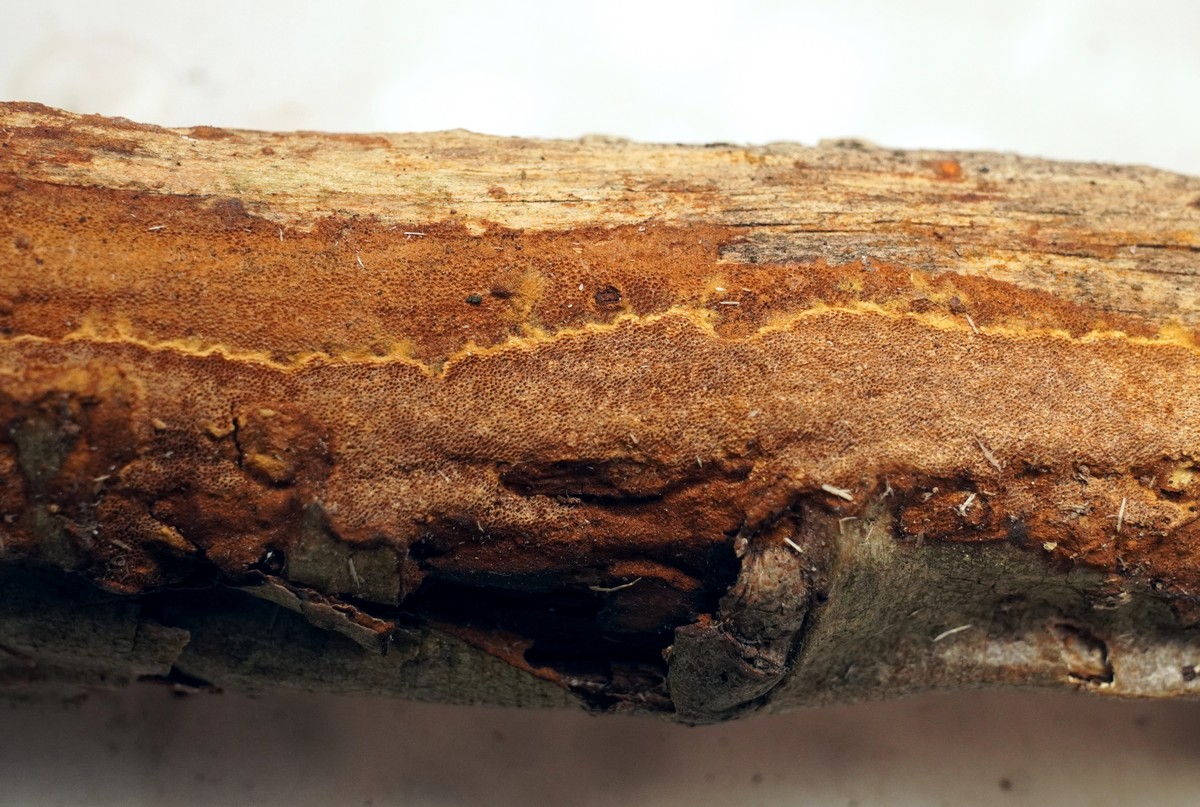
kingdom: Fungi
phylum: Basidiomycota
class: Agaricomycetes
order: Hymenochaetales
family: Hymenochaetaceae
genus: Fuscoporia
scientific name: Fuscoporia ferruginosa
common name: rustbrun ildporesvamp
